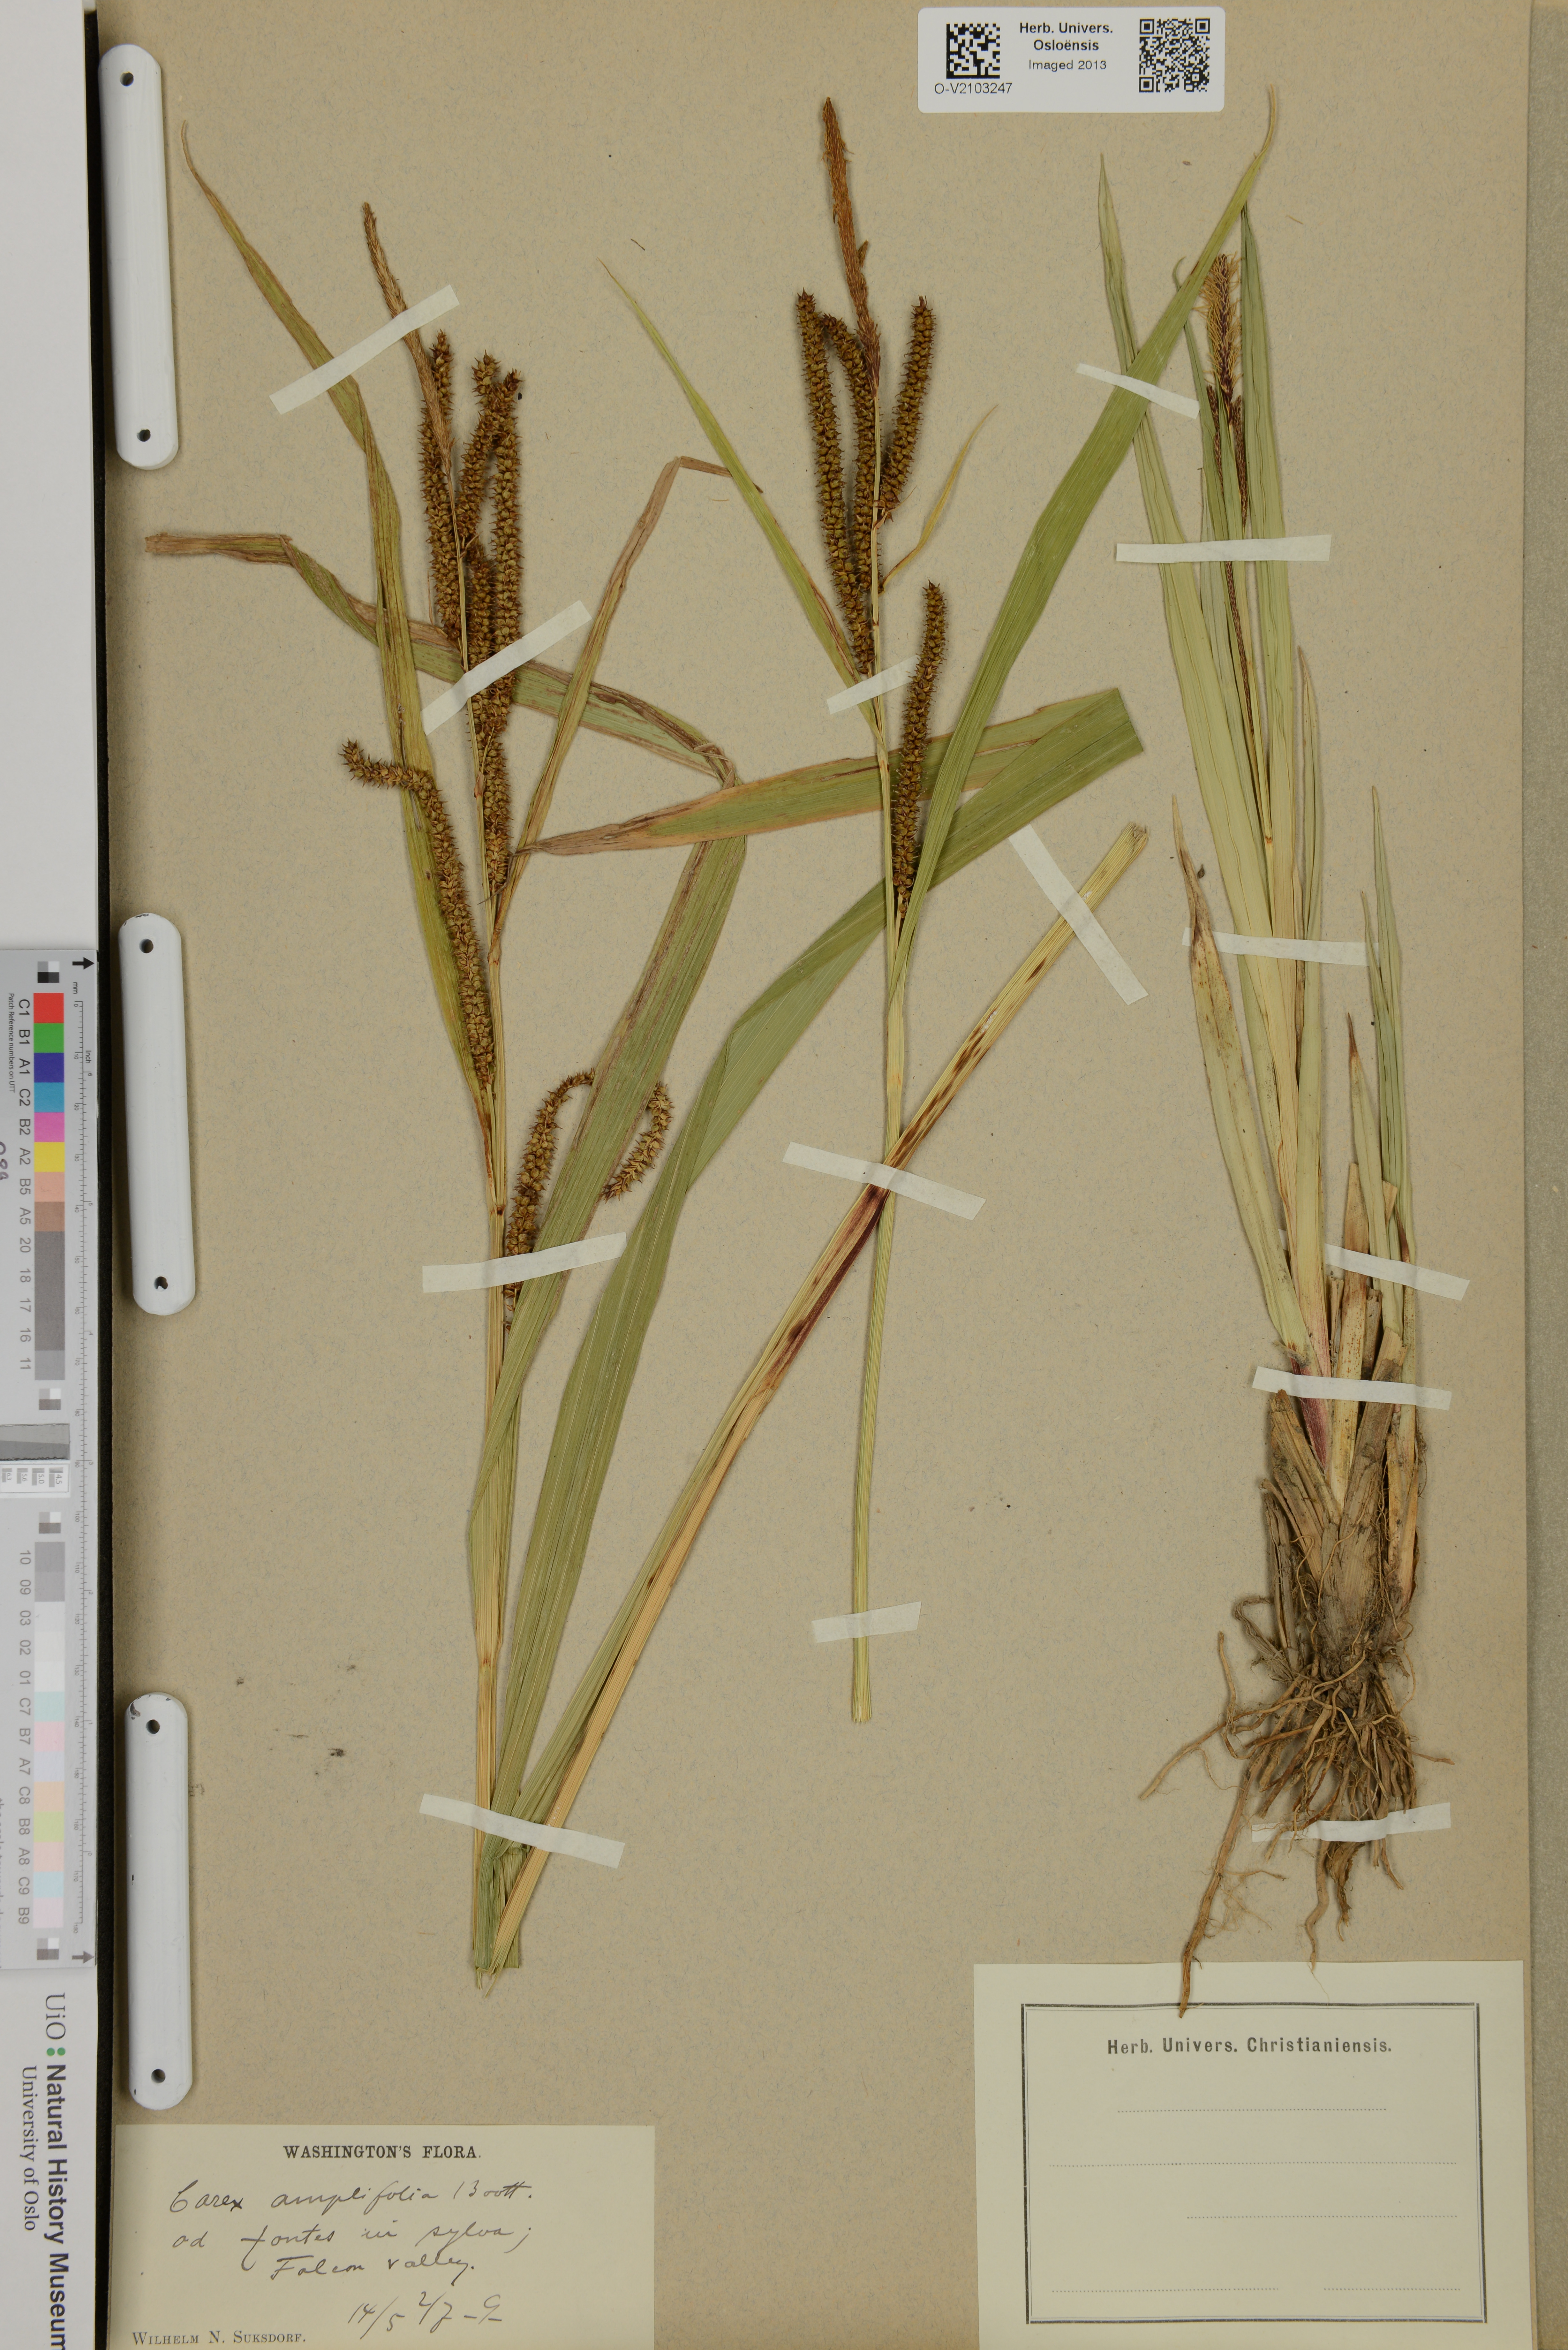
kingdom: Plantae
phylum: Tracheophyta
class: Liliopsida
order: Poales
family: Cyperaceae
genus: Carex
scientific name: Carex amplifolia
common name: Ample-leaved sedge
